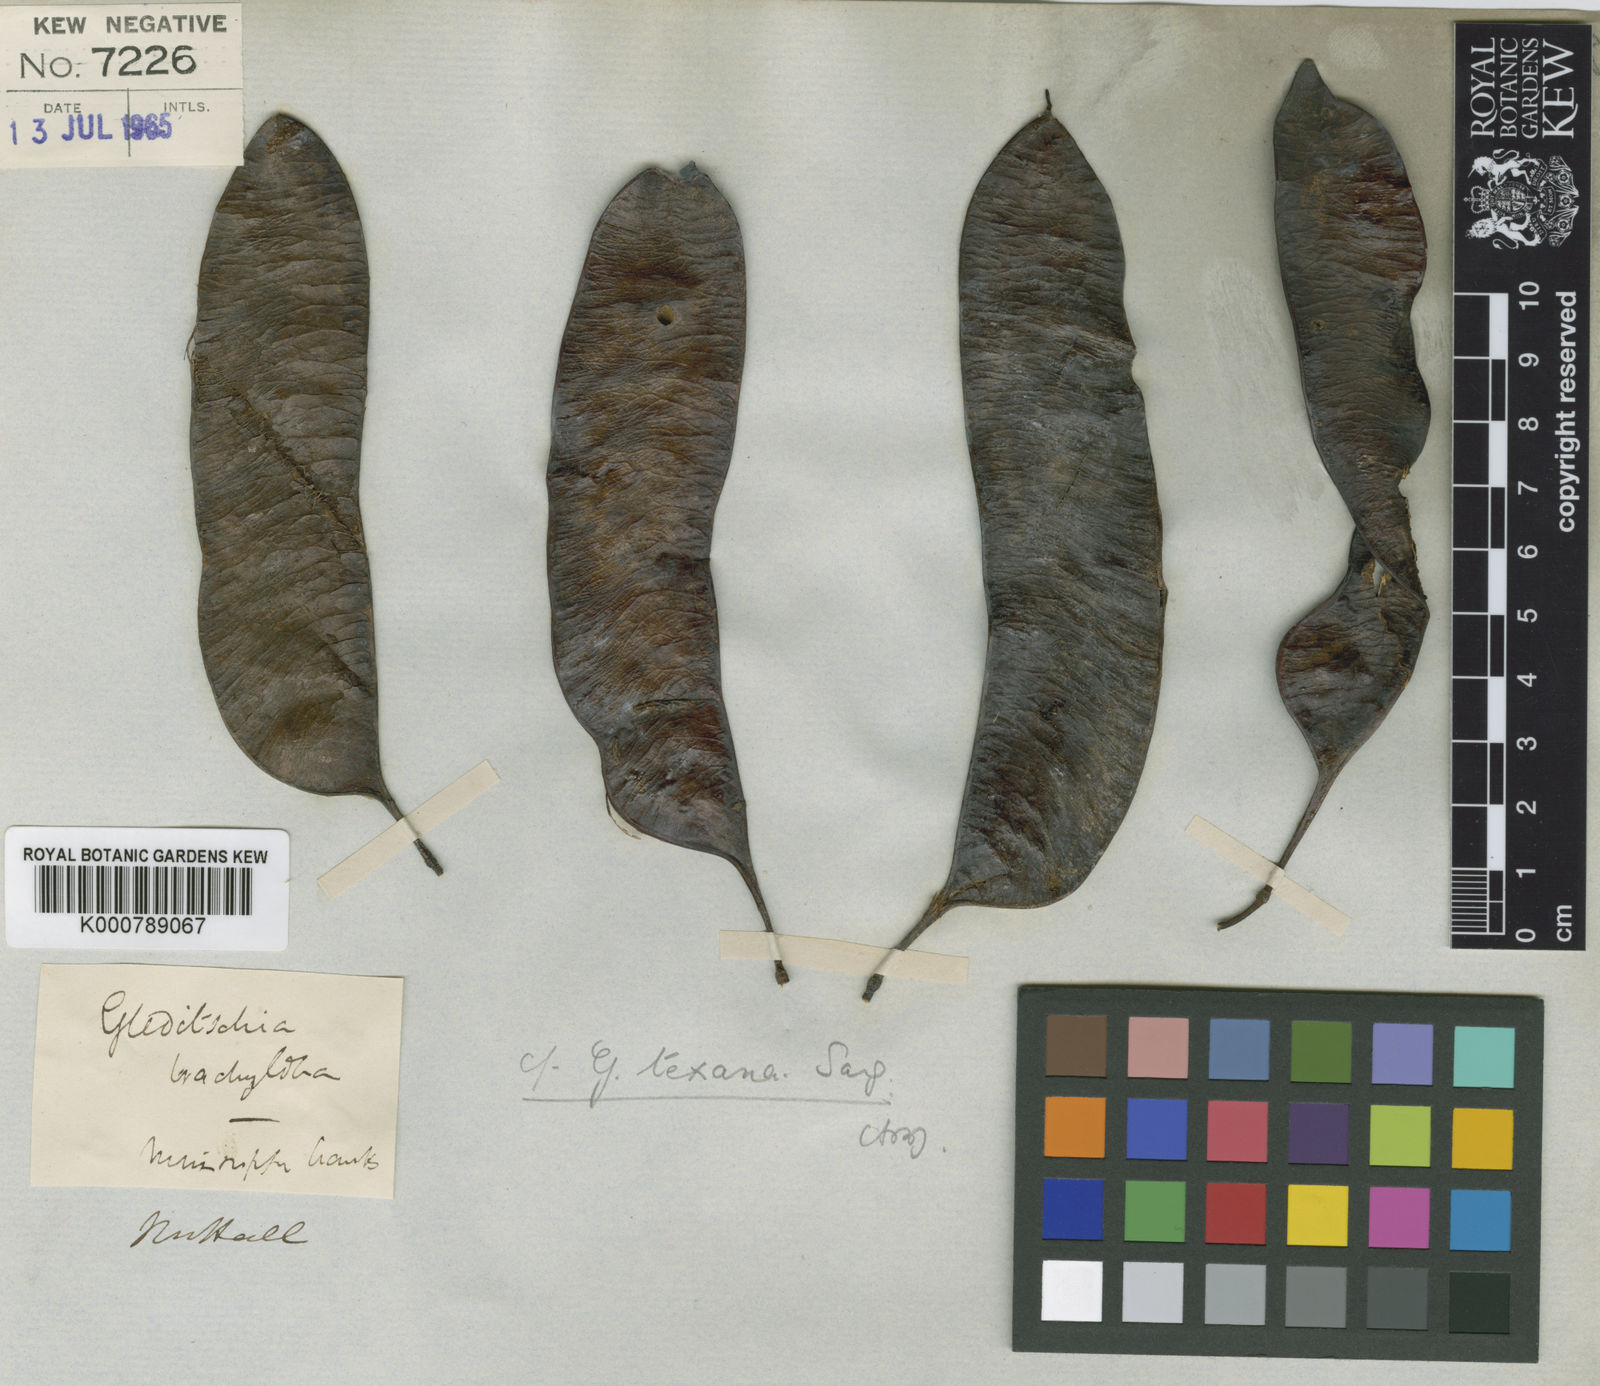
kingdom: Plantae
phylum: Tracheophyta
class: Magnoliopsida
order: Fabales
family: Fabaceae
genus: Gleditsia
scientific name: Gleditsia texana
